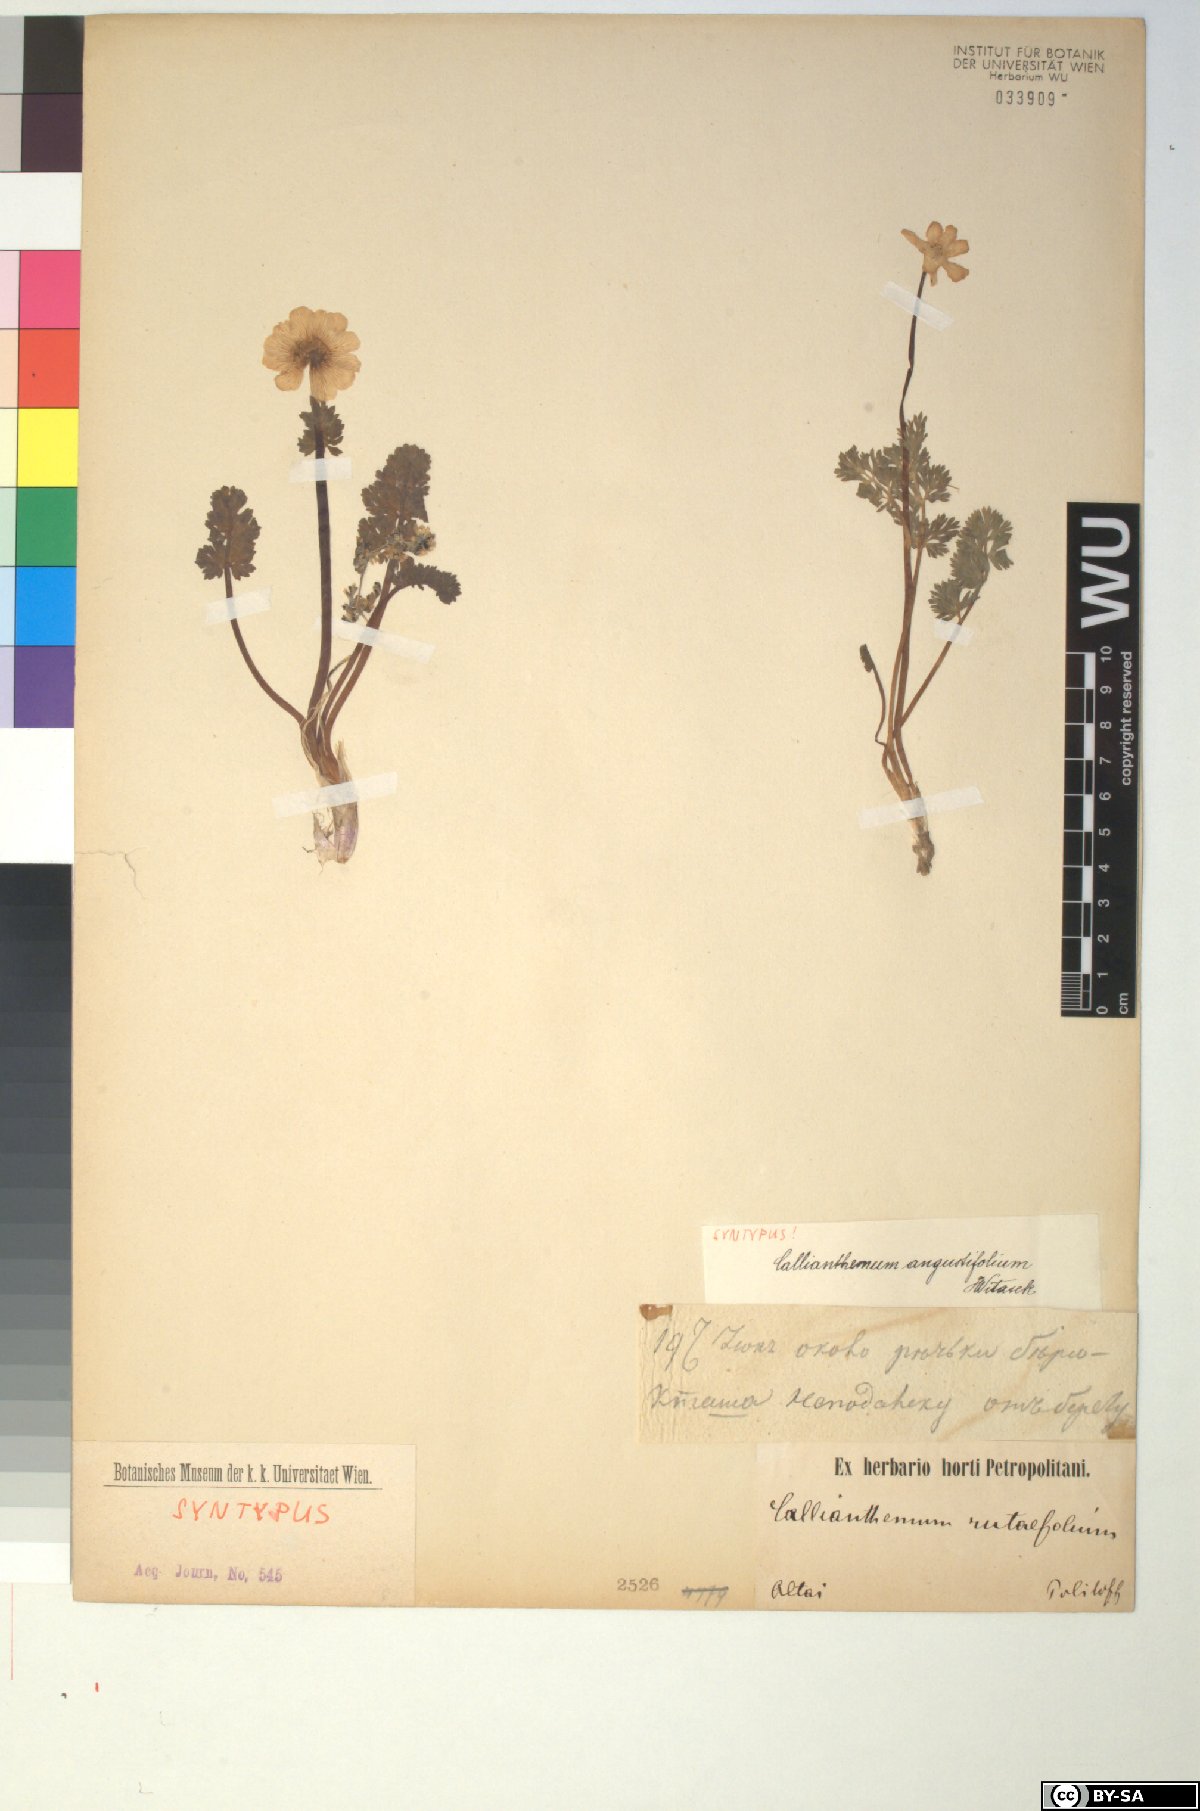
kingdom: Plantae
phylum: Tracheophyta
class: Magnoliopsida
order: Ranunculales
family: Ranunculaceae
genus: Callianthemum
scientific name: Callianthemum angustifolium
